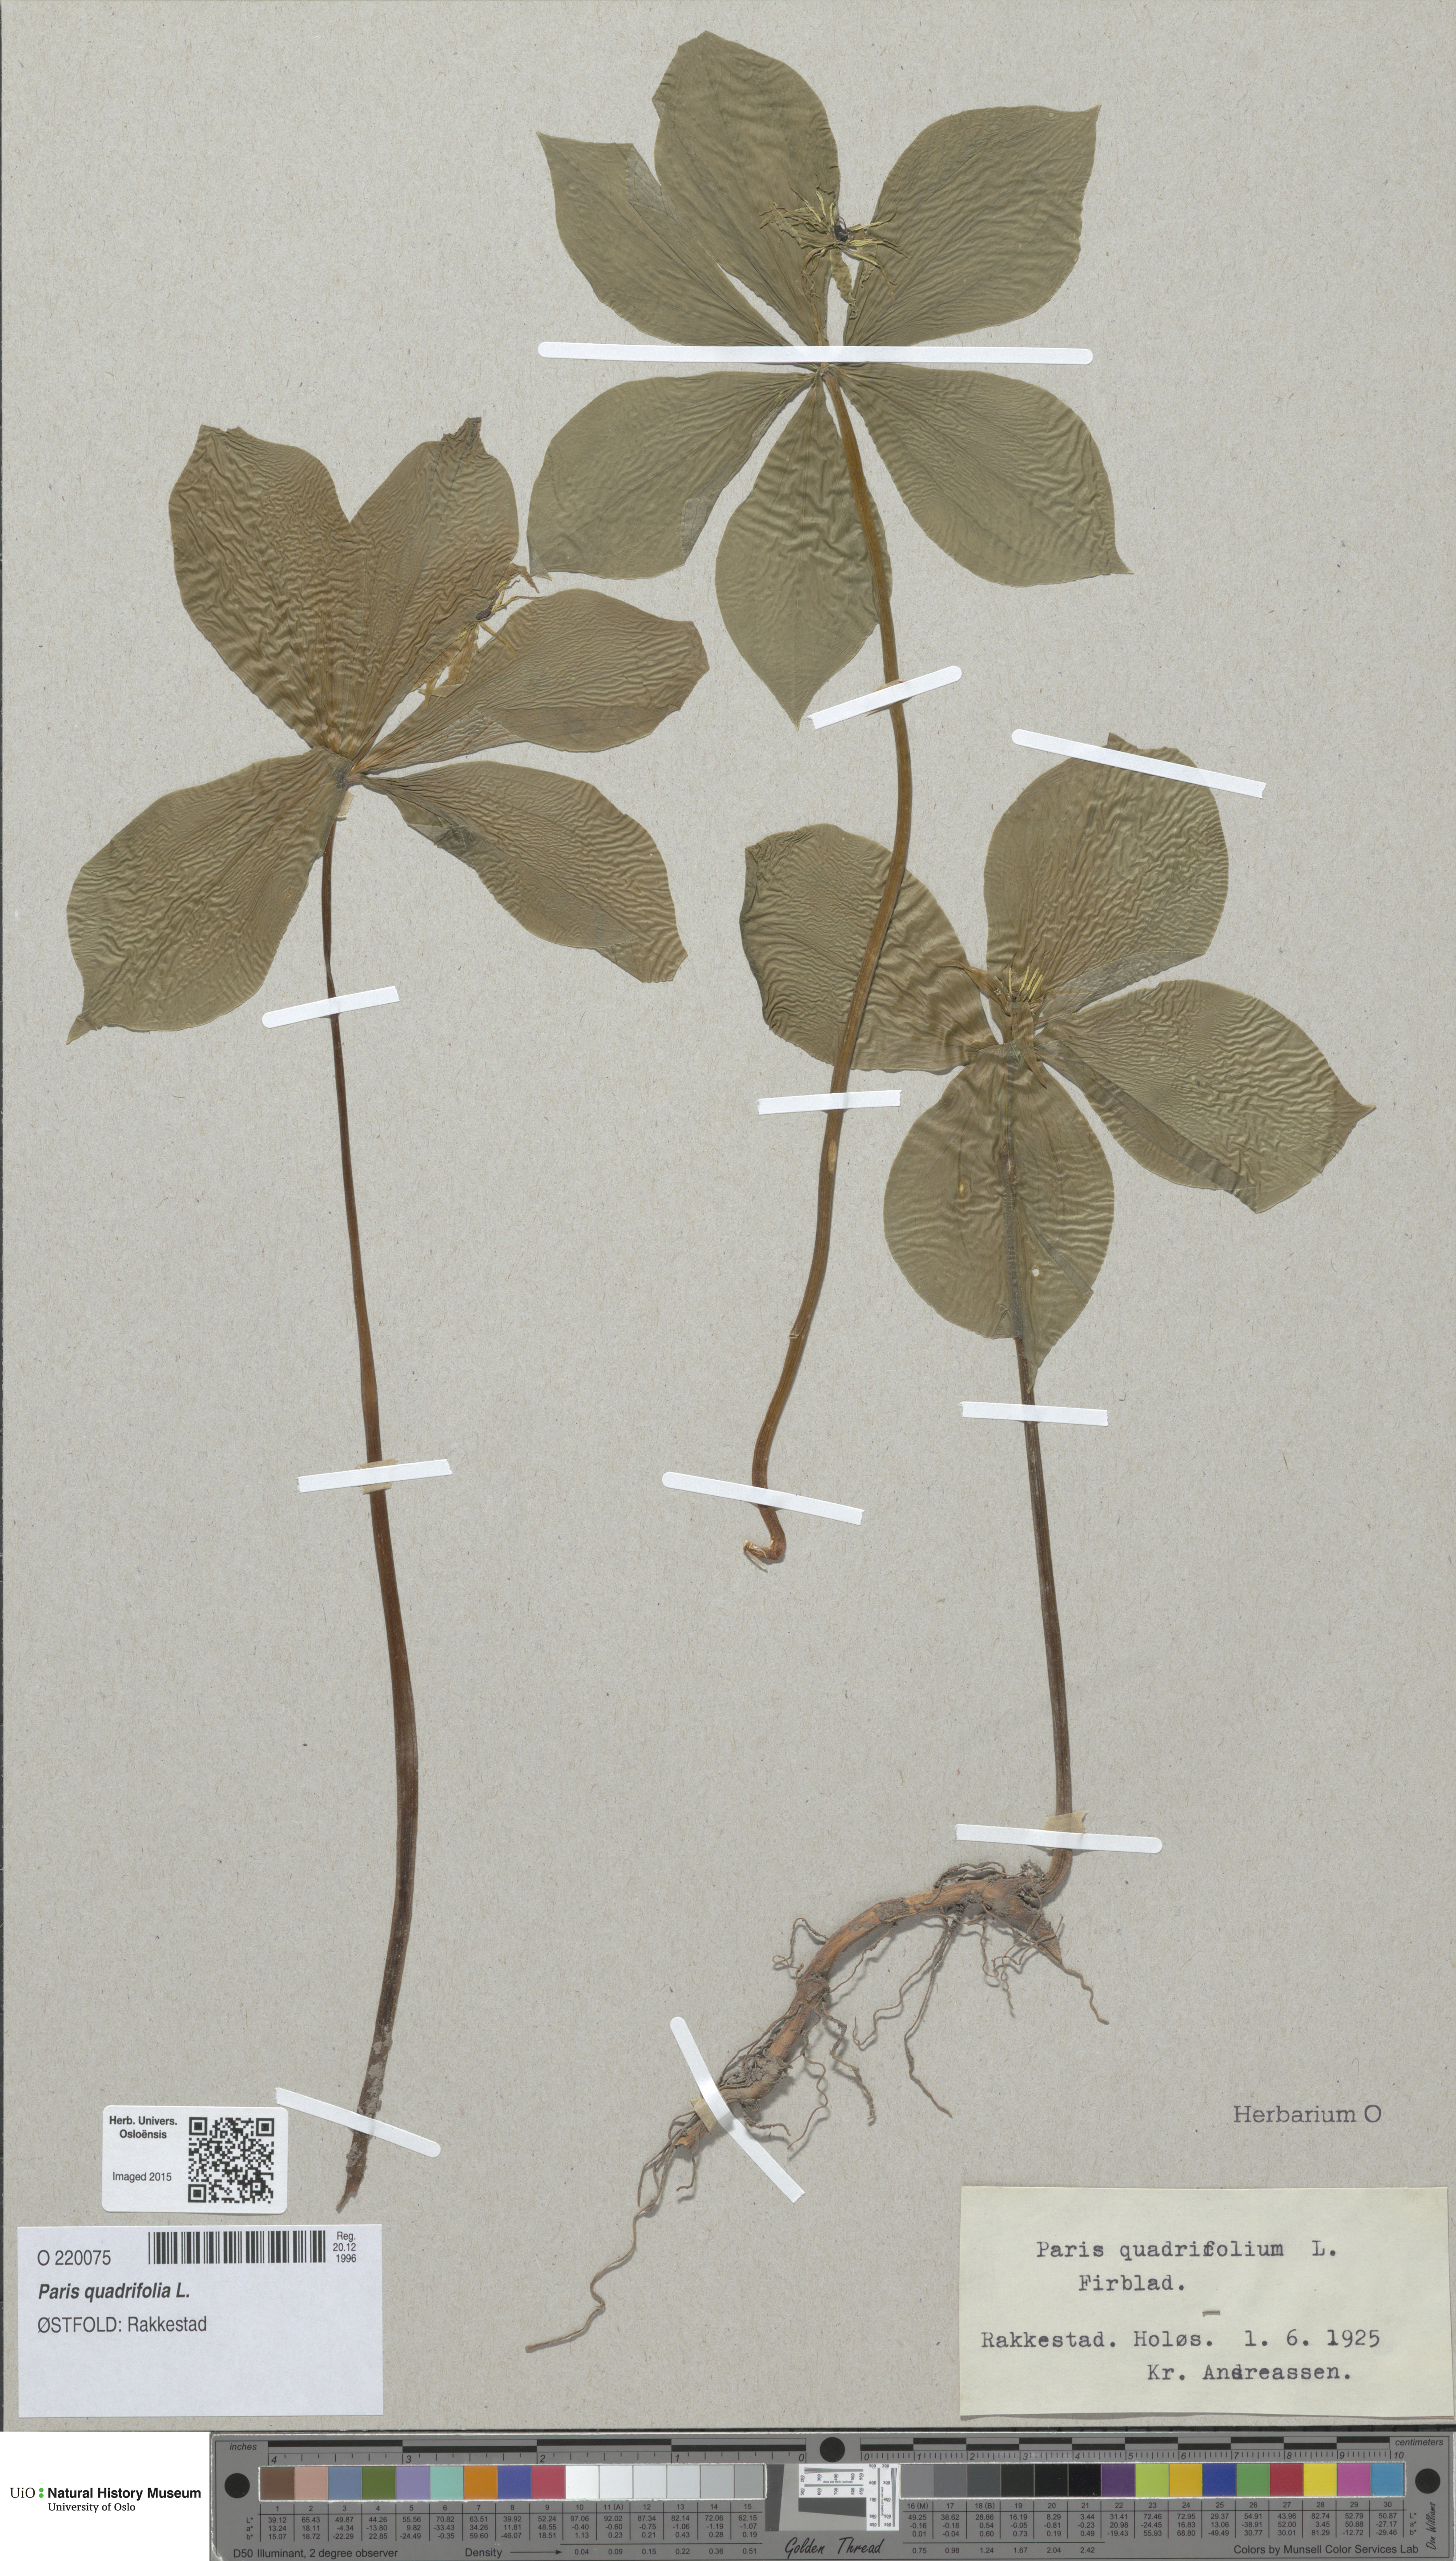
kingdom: Plantae
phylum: Tracheophyta
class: Liliopsida
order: Liliales
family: Melanthiaceae
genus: Paris
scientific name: Paris quadrifolia
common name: Herb-paris
